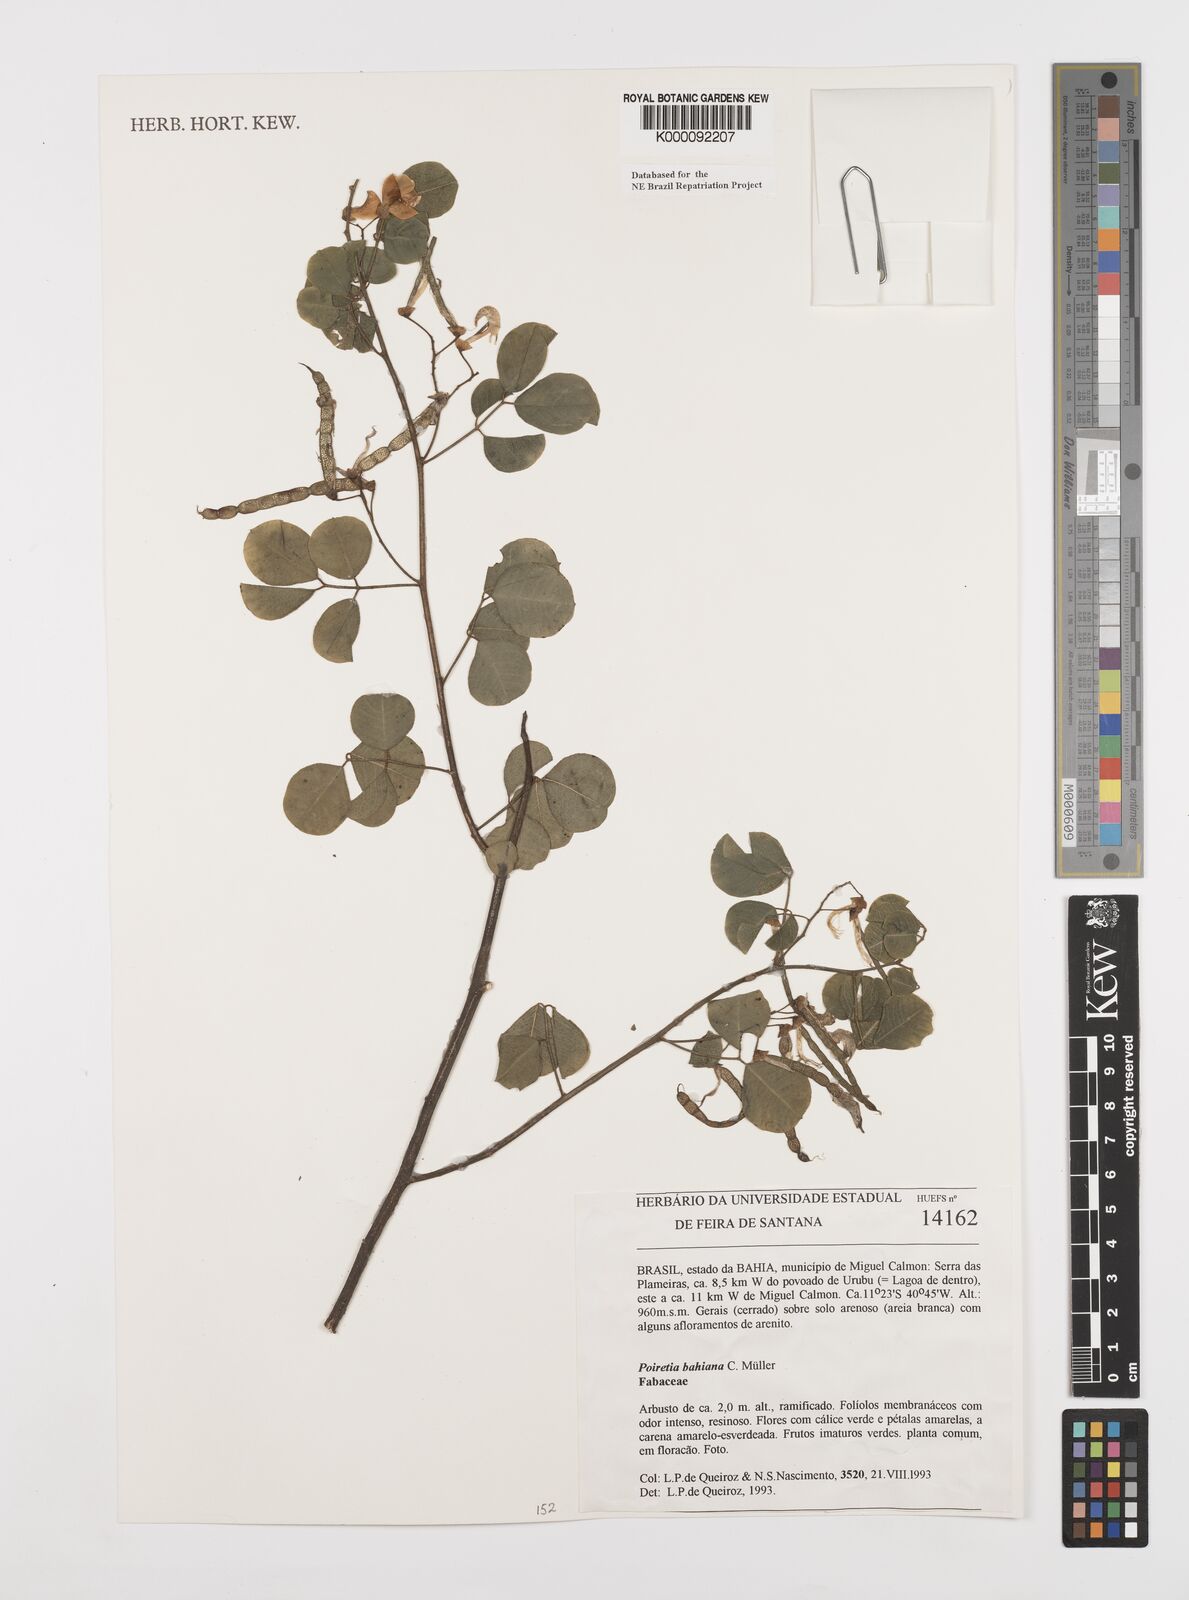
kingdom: Plantae
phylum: Tracheophyta
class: Magnoliopsida
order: Fabales
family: Fabaceae
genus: Poiretia
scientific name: Poiretia
